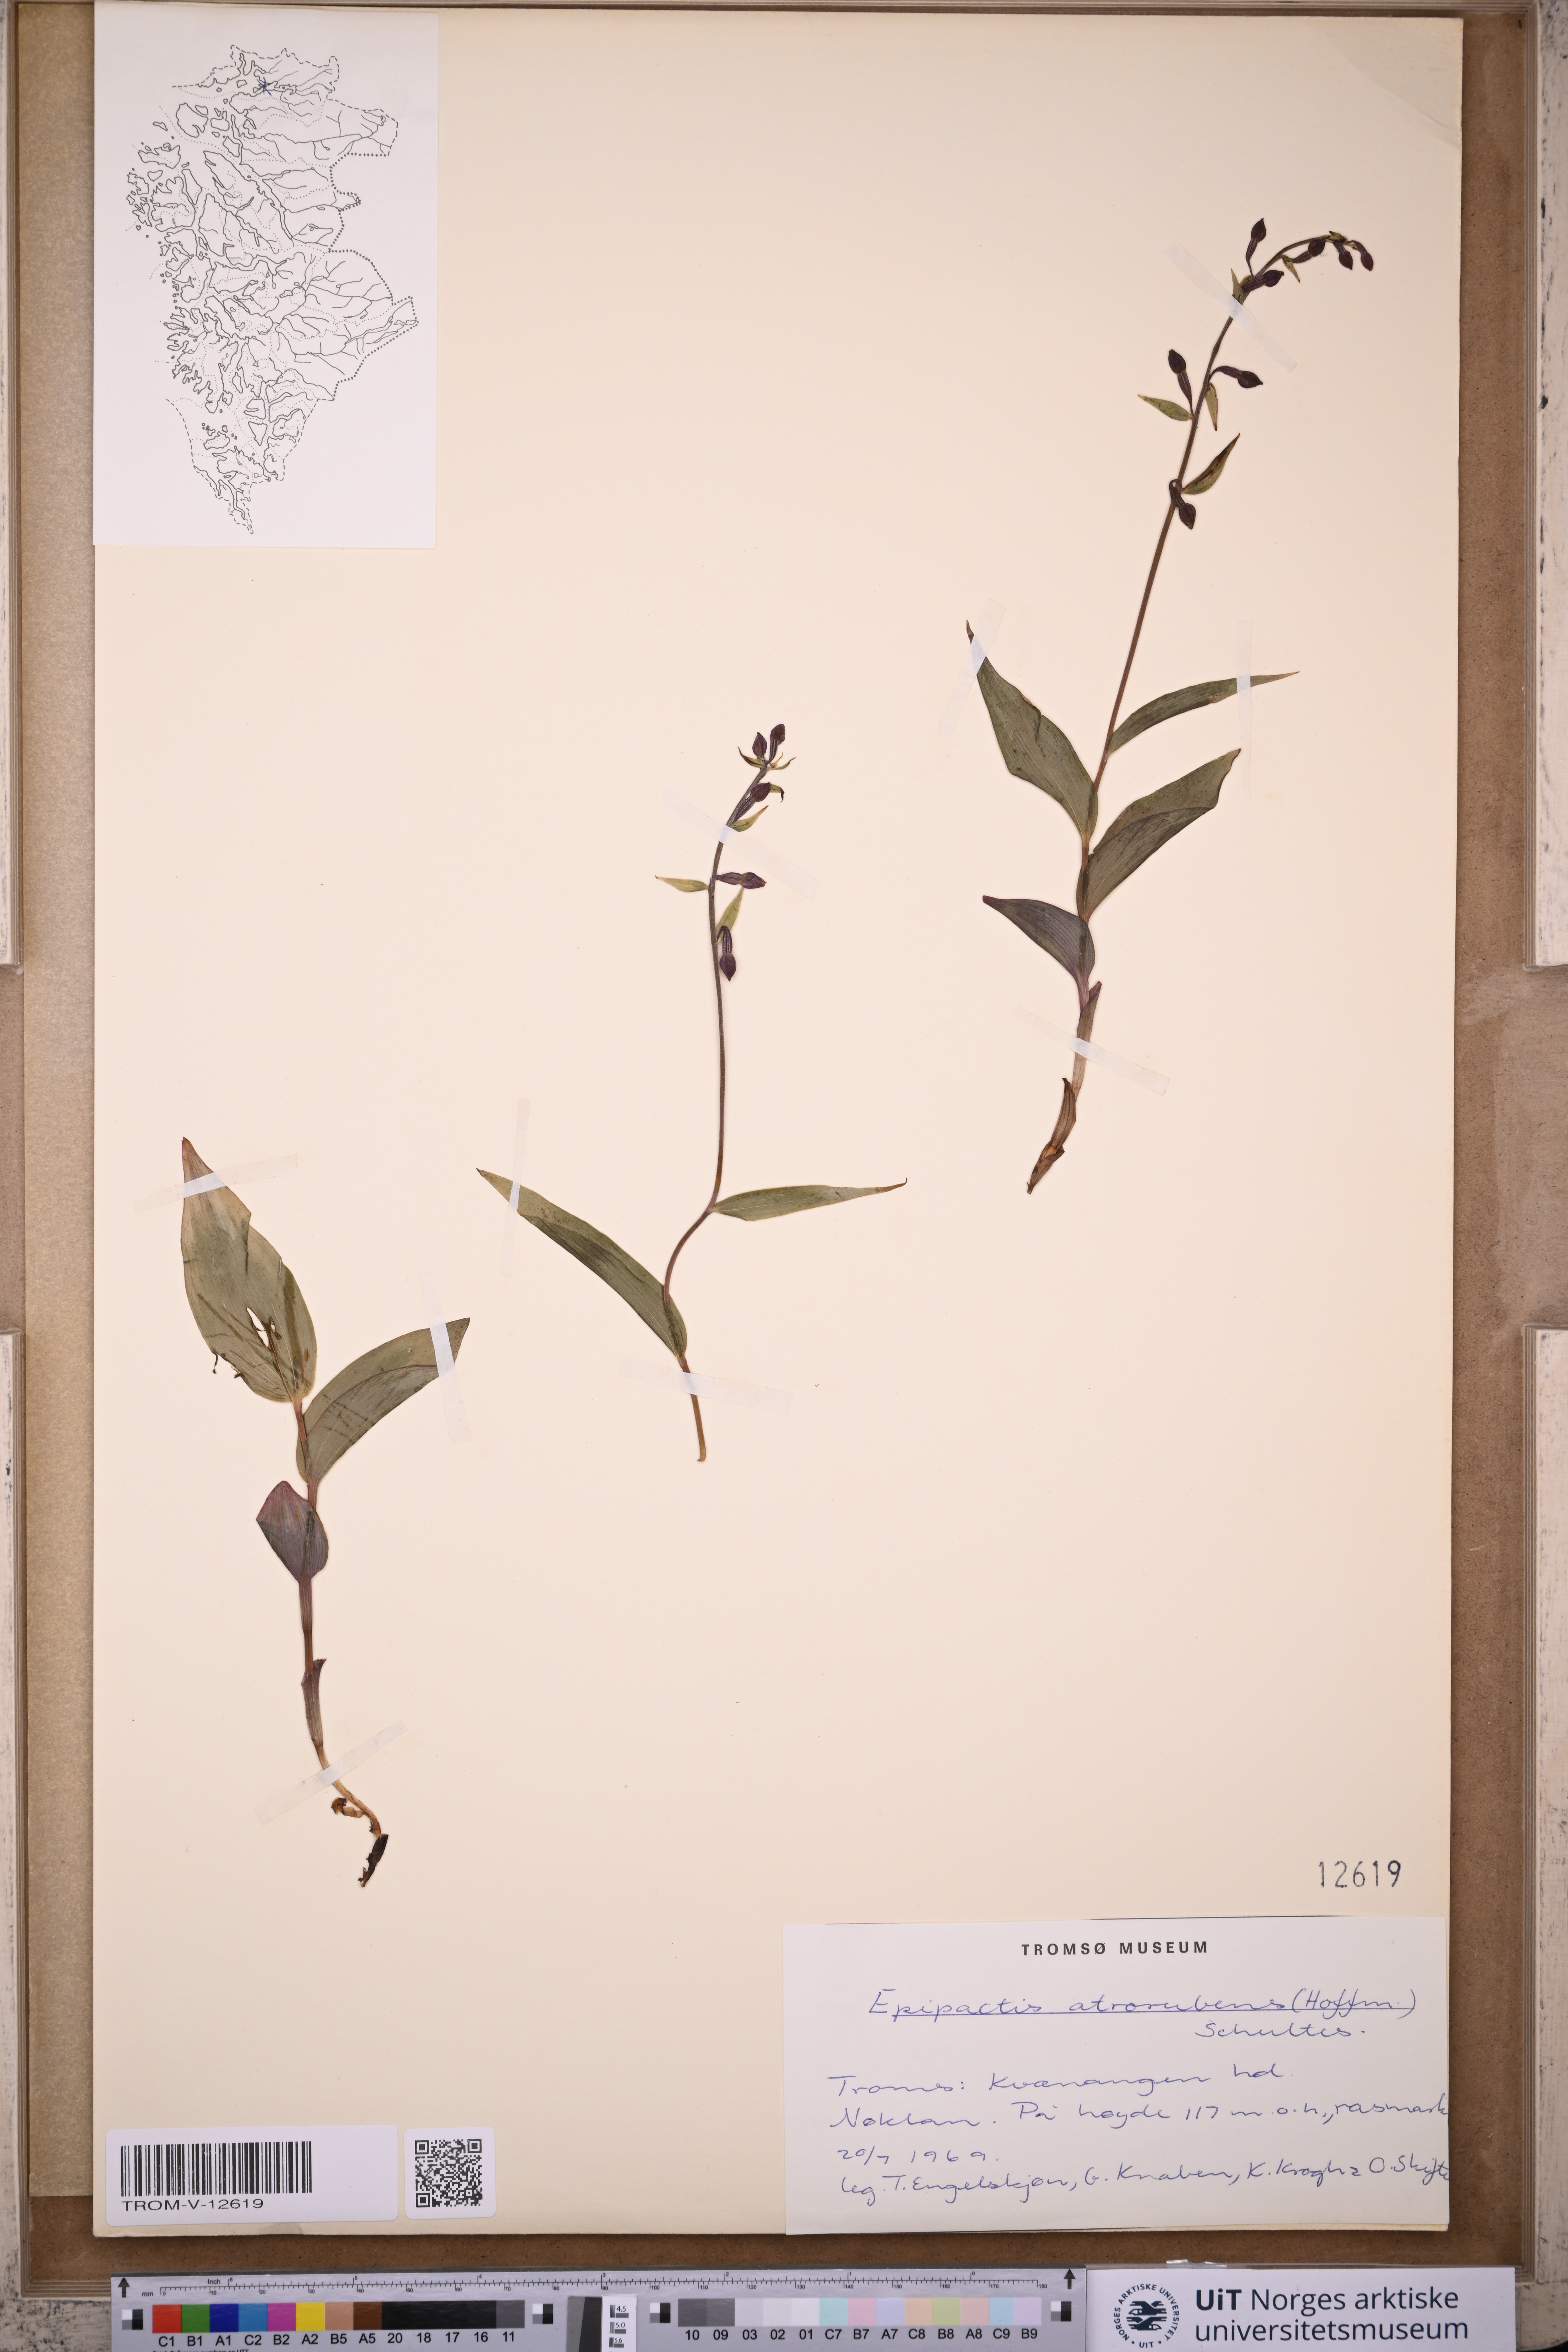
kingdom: Plantae
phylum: Tracheophyta
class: Liliopsida
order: Asparagales
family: Orchidaceae
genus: Epipactis
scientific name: Epipactis atrorubens
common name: Dark-red helleborine
